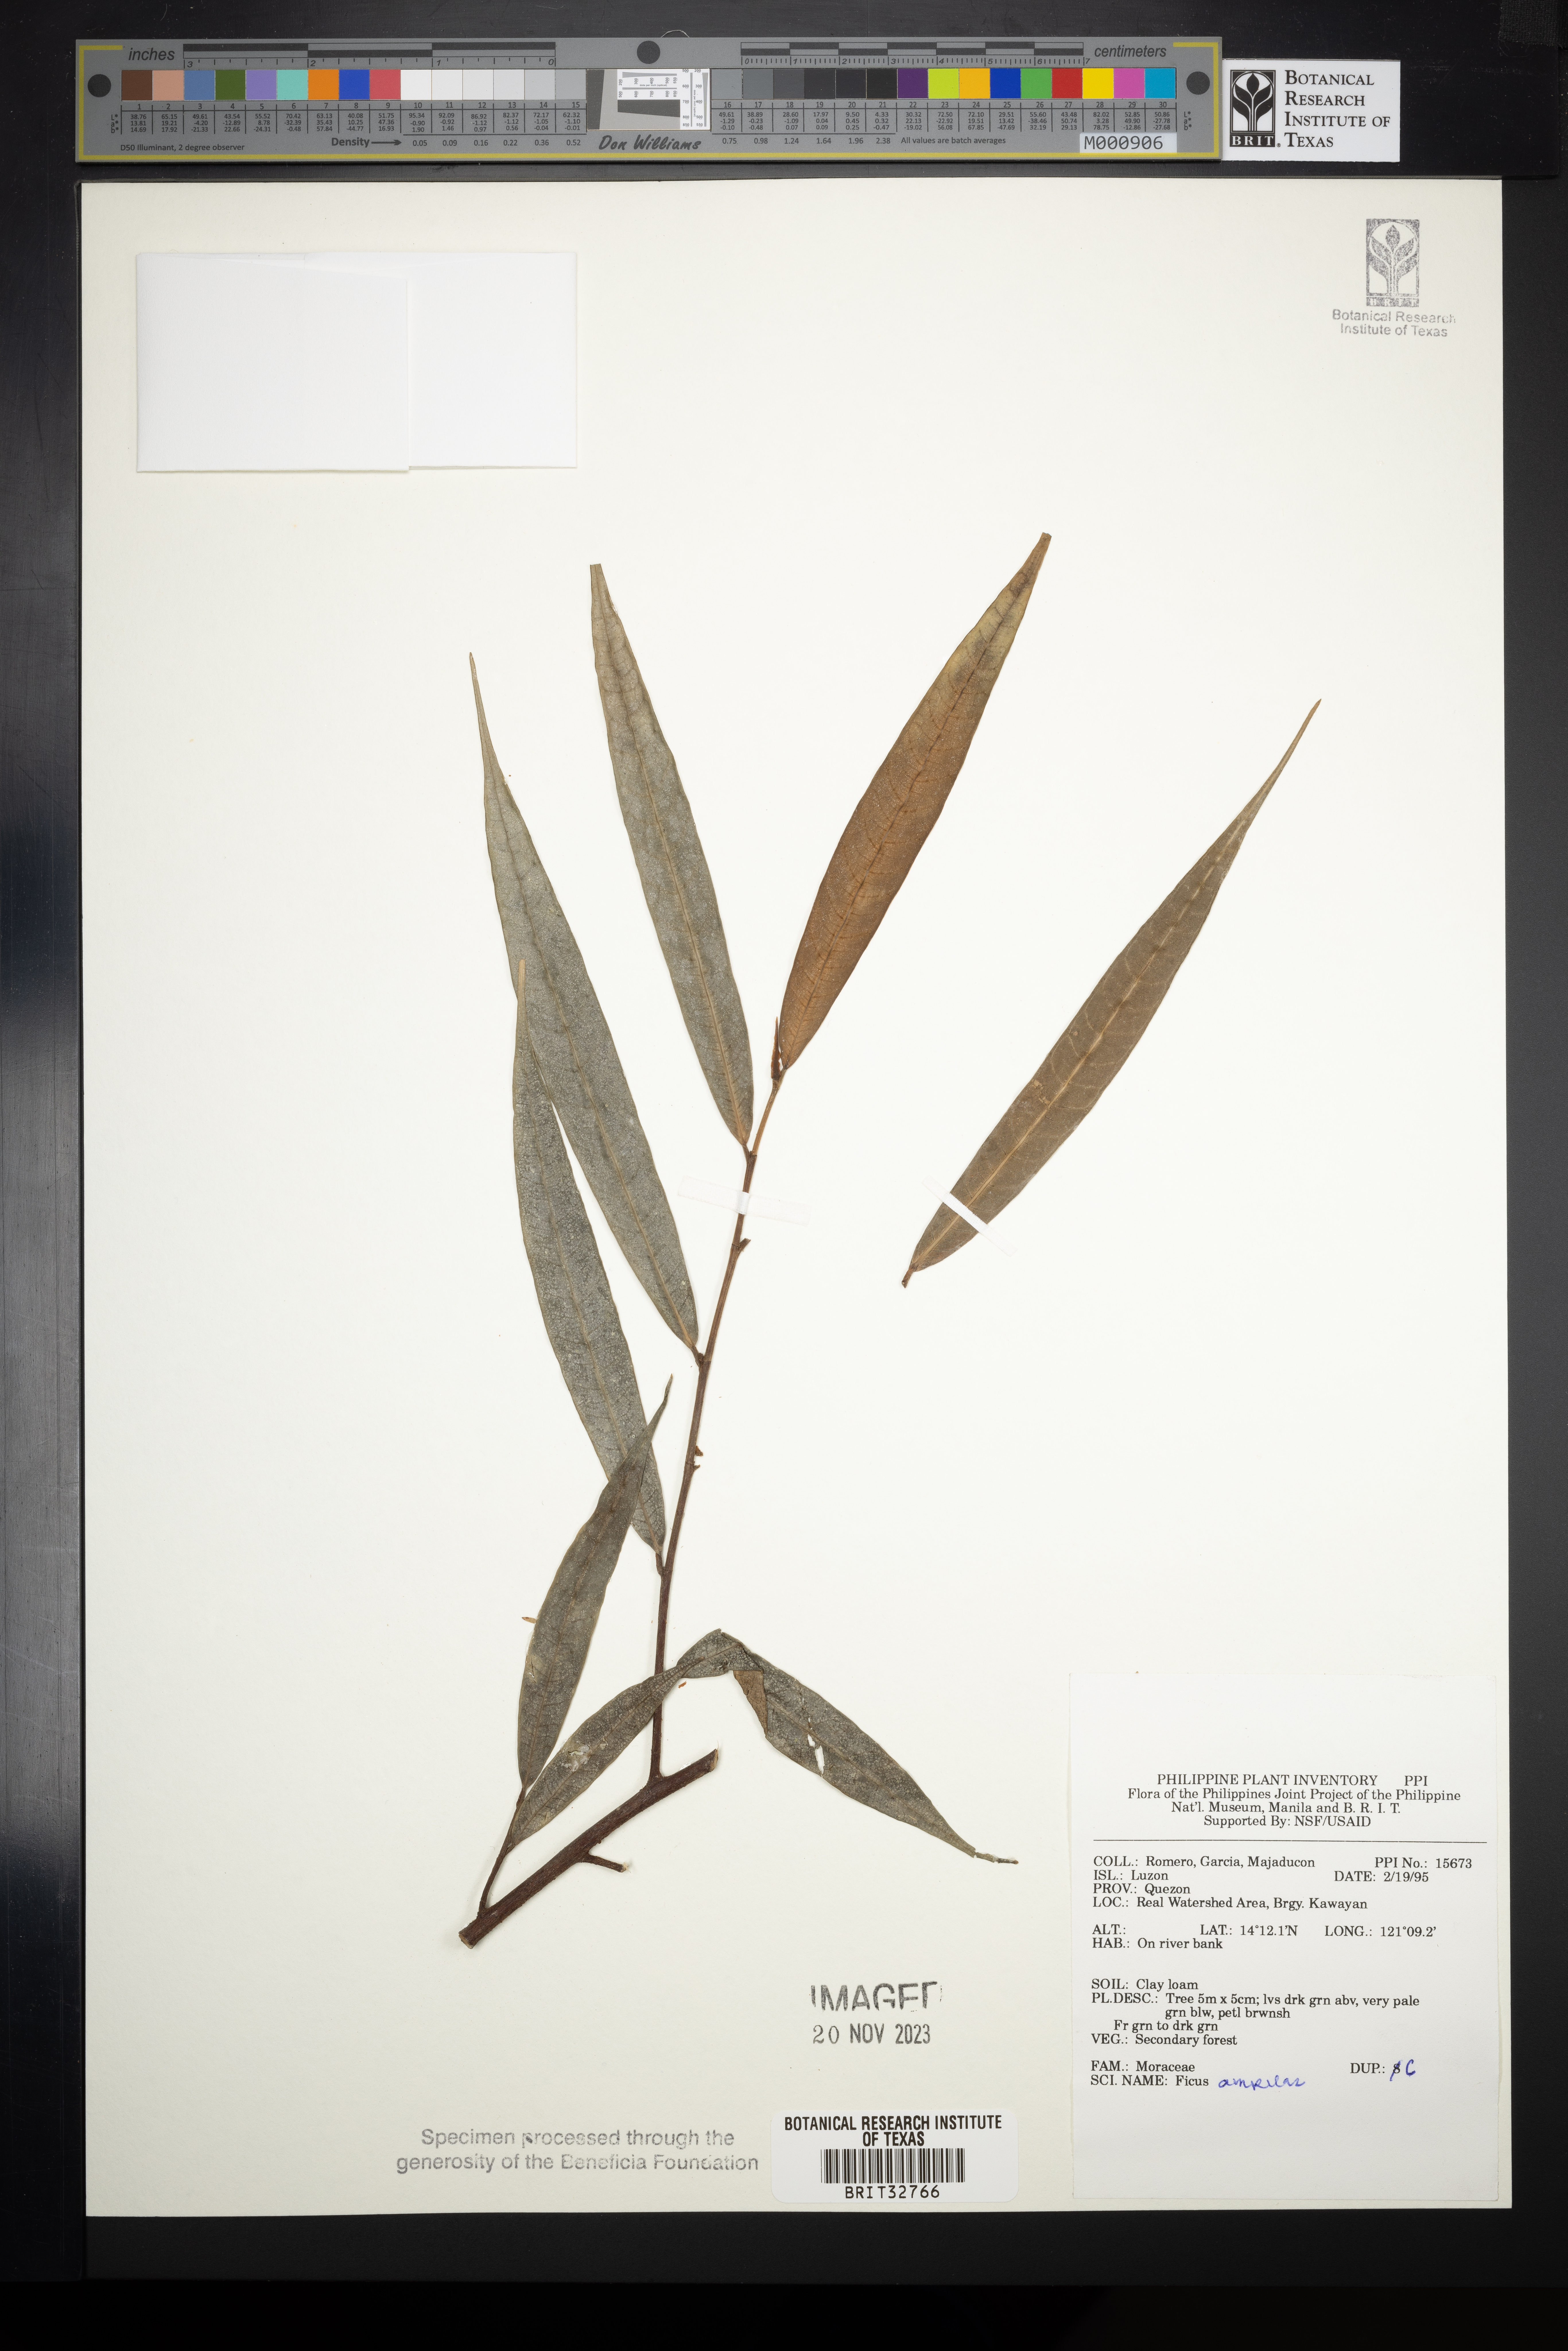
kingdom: Plantae
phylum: Tracheophyta
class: Magnoliopsida
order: Rosales
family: Moraceae
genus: Ficus
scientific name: Ficus ampelos
